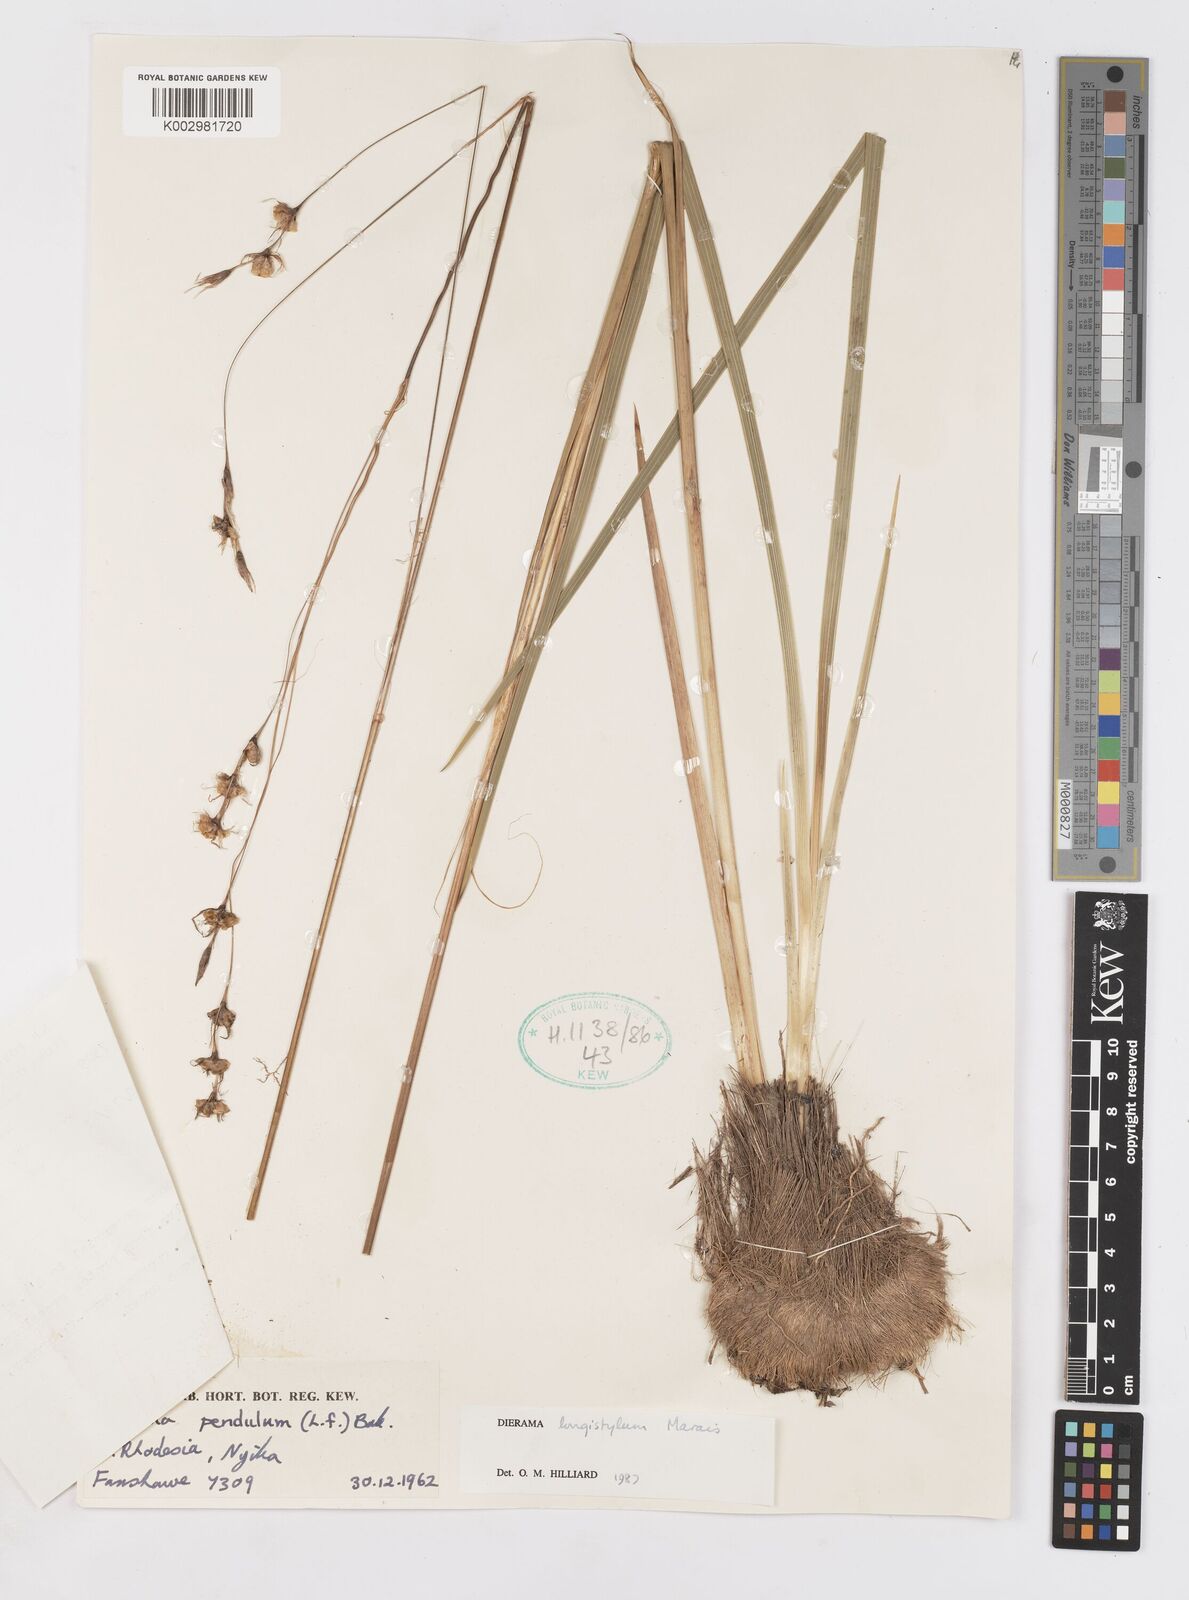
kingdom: Plantae
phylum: Tracheophyta
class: Liliopsida
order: Asparagales
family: Iridaceae
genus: Dierama
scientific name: Dierama longistylum
